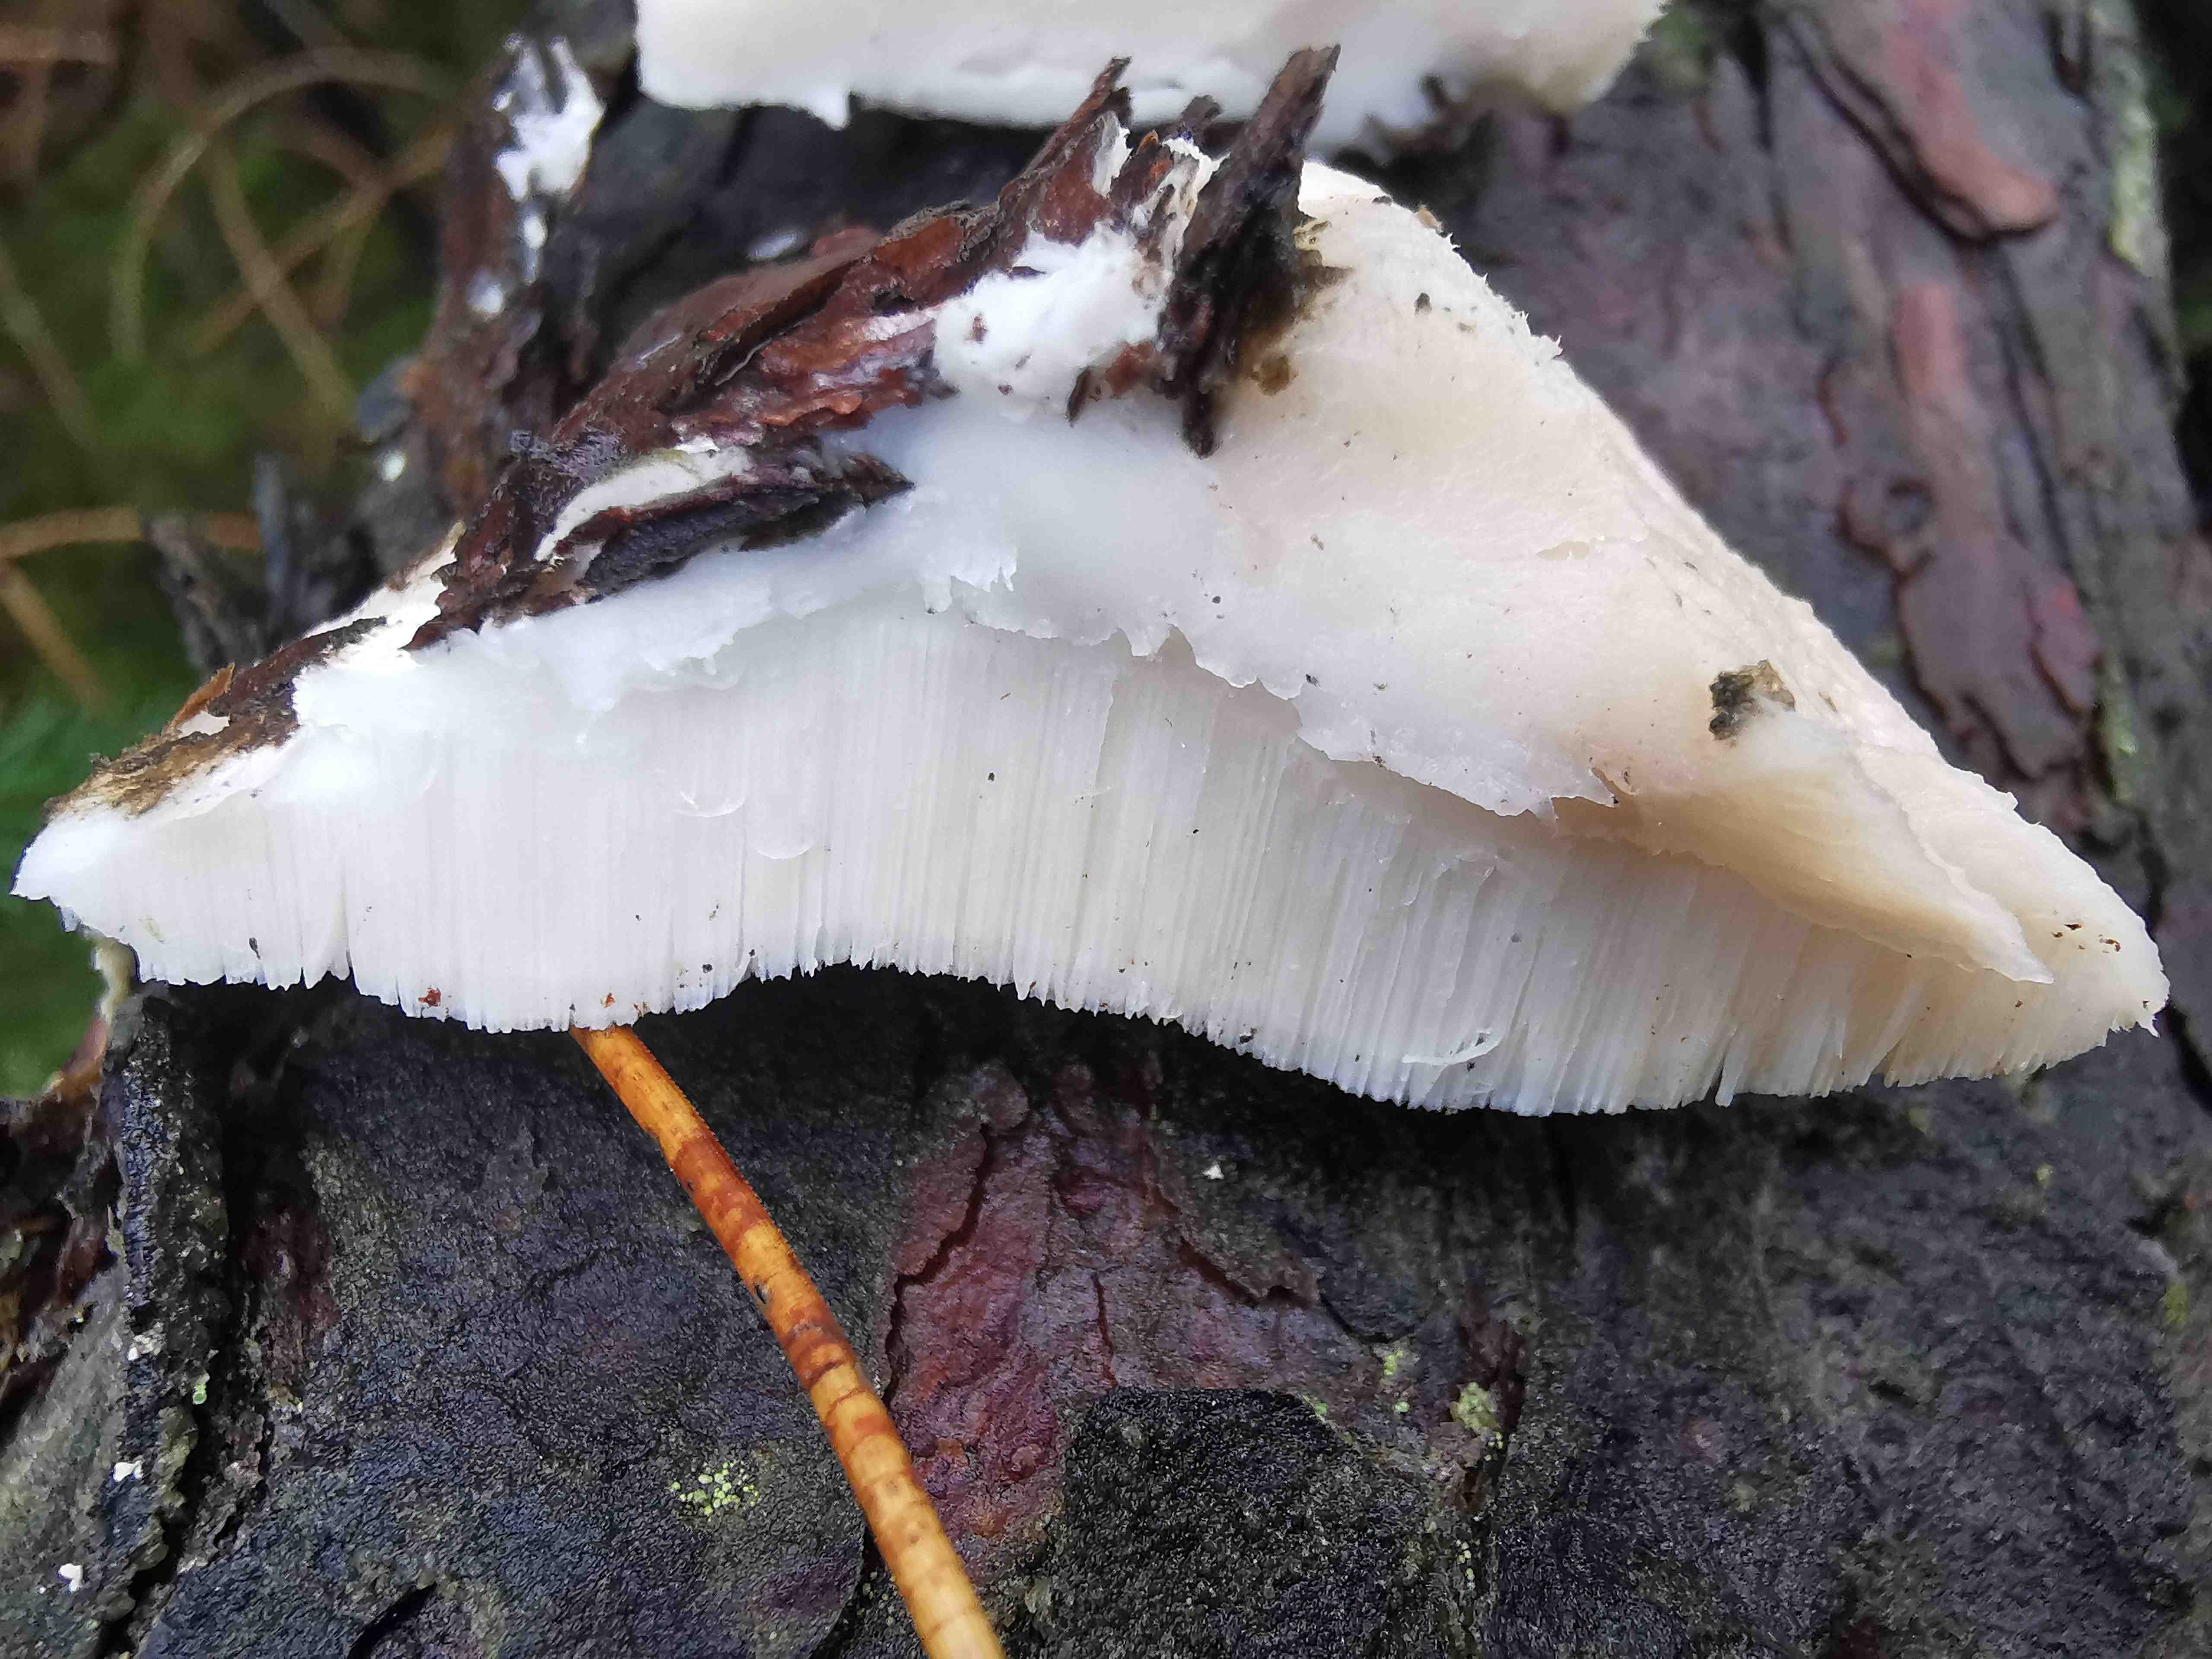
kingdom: Fungi
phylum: Basidiomycota
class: Agaricomycetes
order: Polyporales
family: Incrustoporiaceae
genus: Tyromyces
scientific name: Tyromyces lacteus
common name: mælkehvid kødporesvamp
